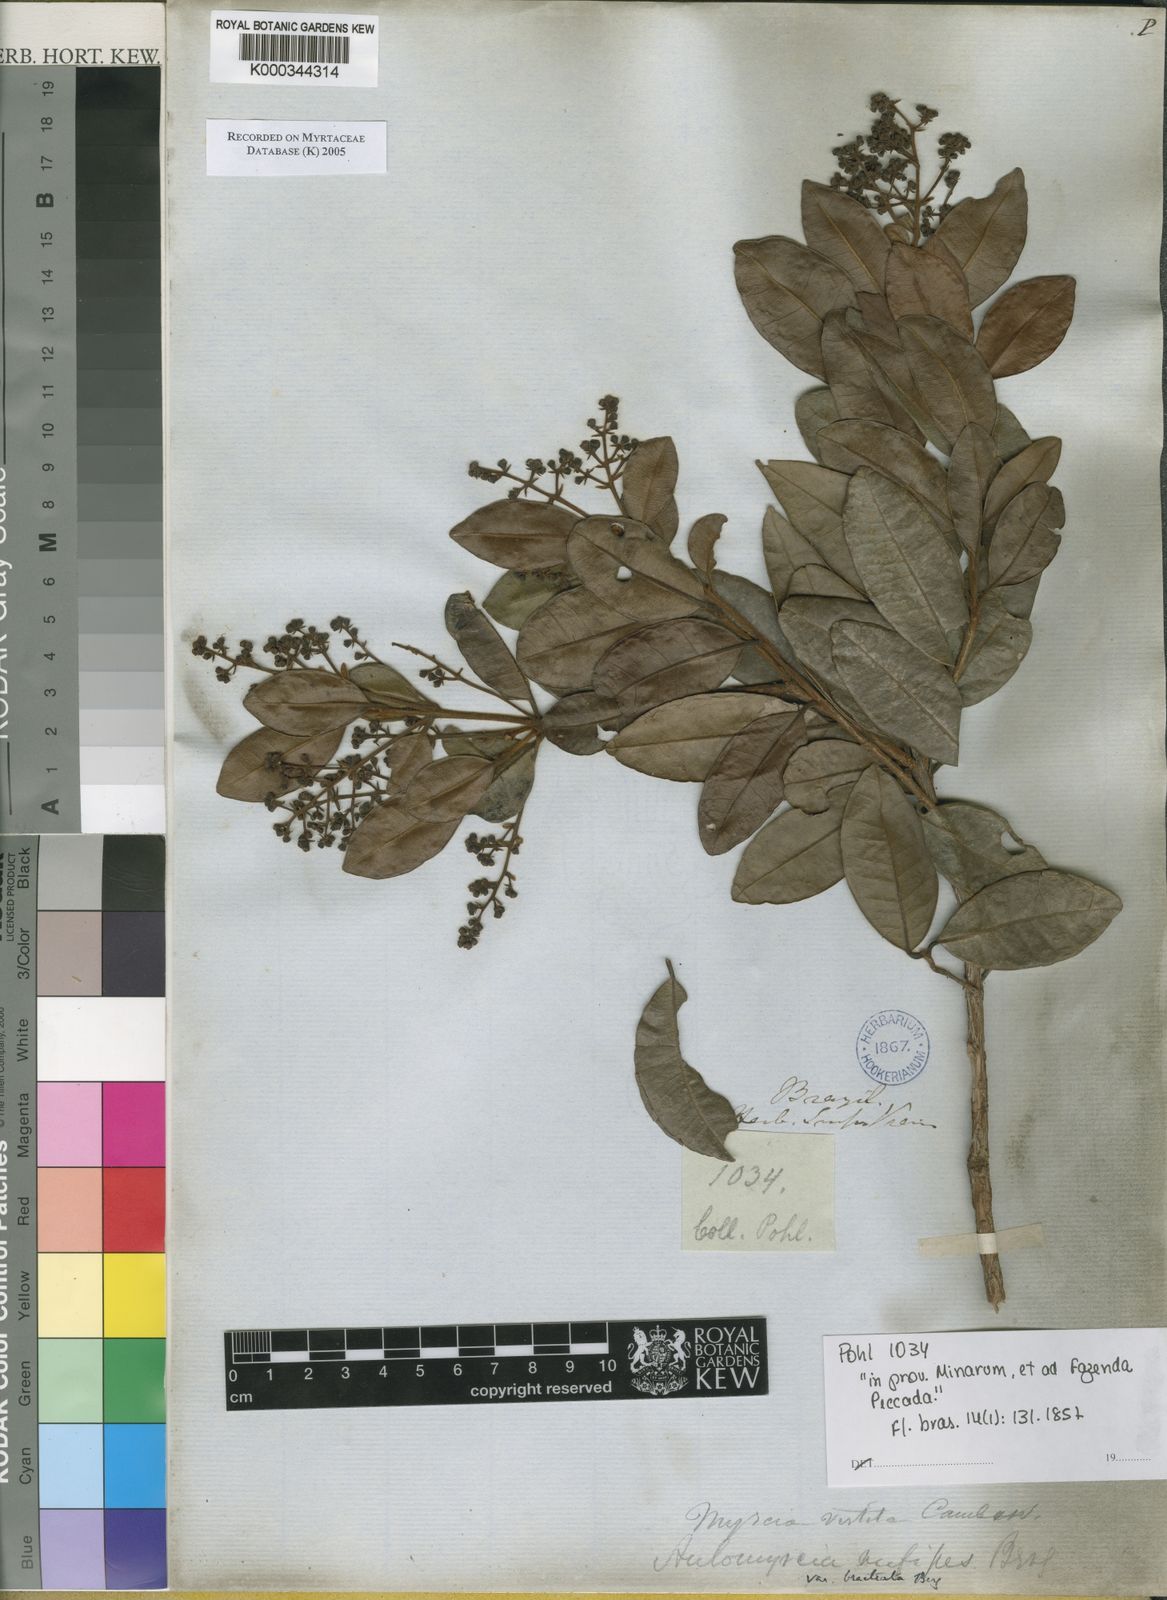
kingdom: Plantae
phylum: Tracheophyta
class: Magnoliopsida
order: Myrtales
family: Myrtaceae
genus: Myrcia
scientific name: Myrcia rufipes
